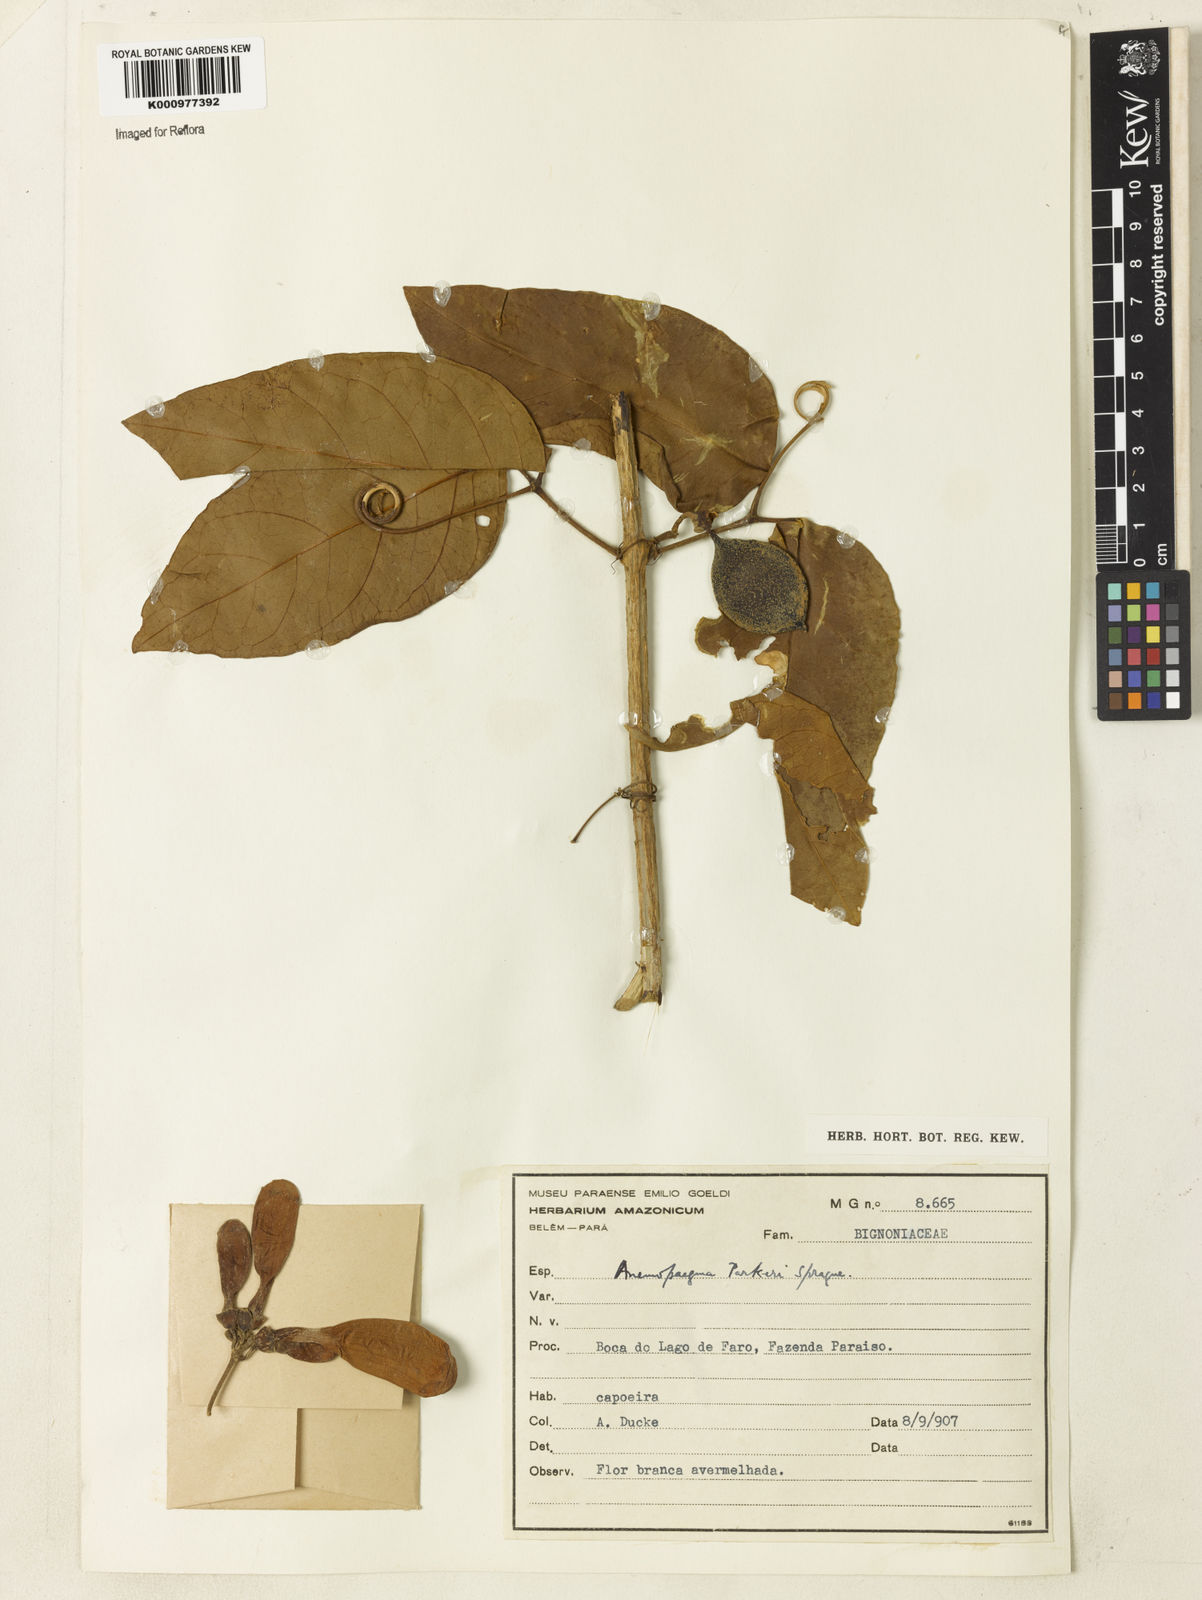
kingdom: Plantae
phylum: Tracheophyta
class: Magnoliopsida
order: Lamiales
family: Bignoniaceae
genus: Anemopaegma
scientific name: Anemopaegma parkeri
